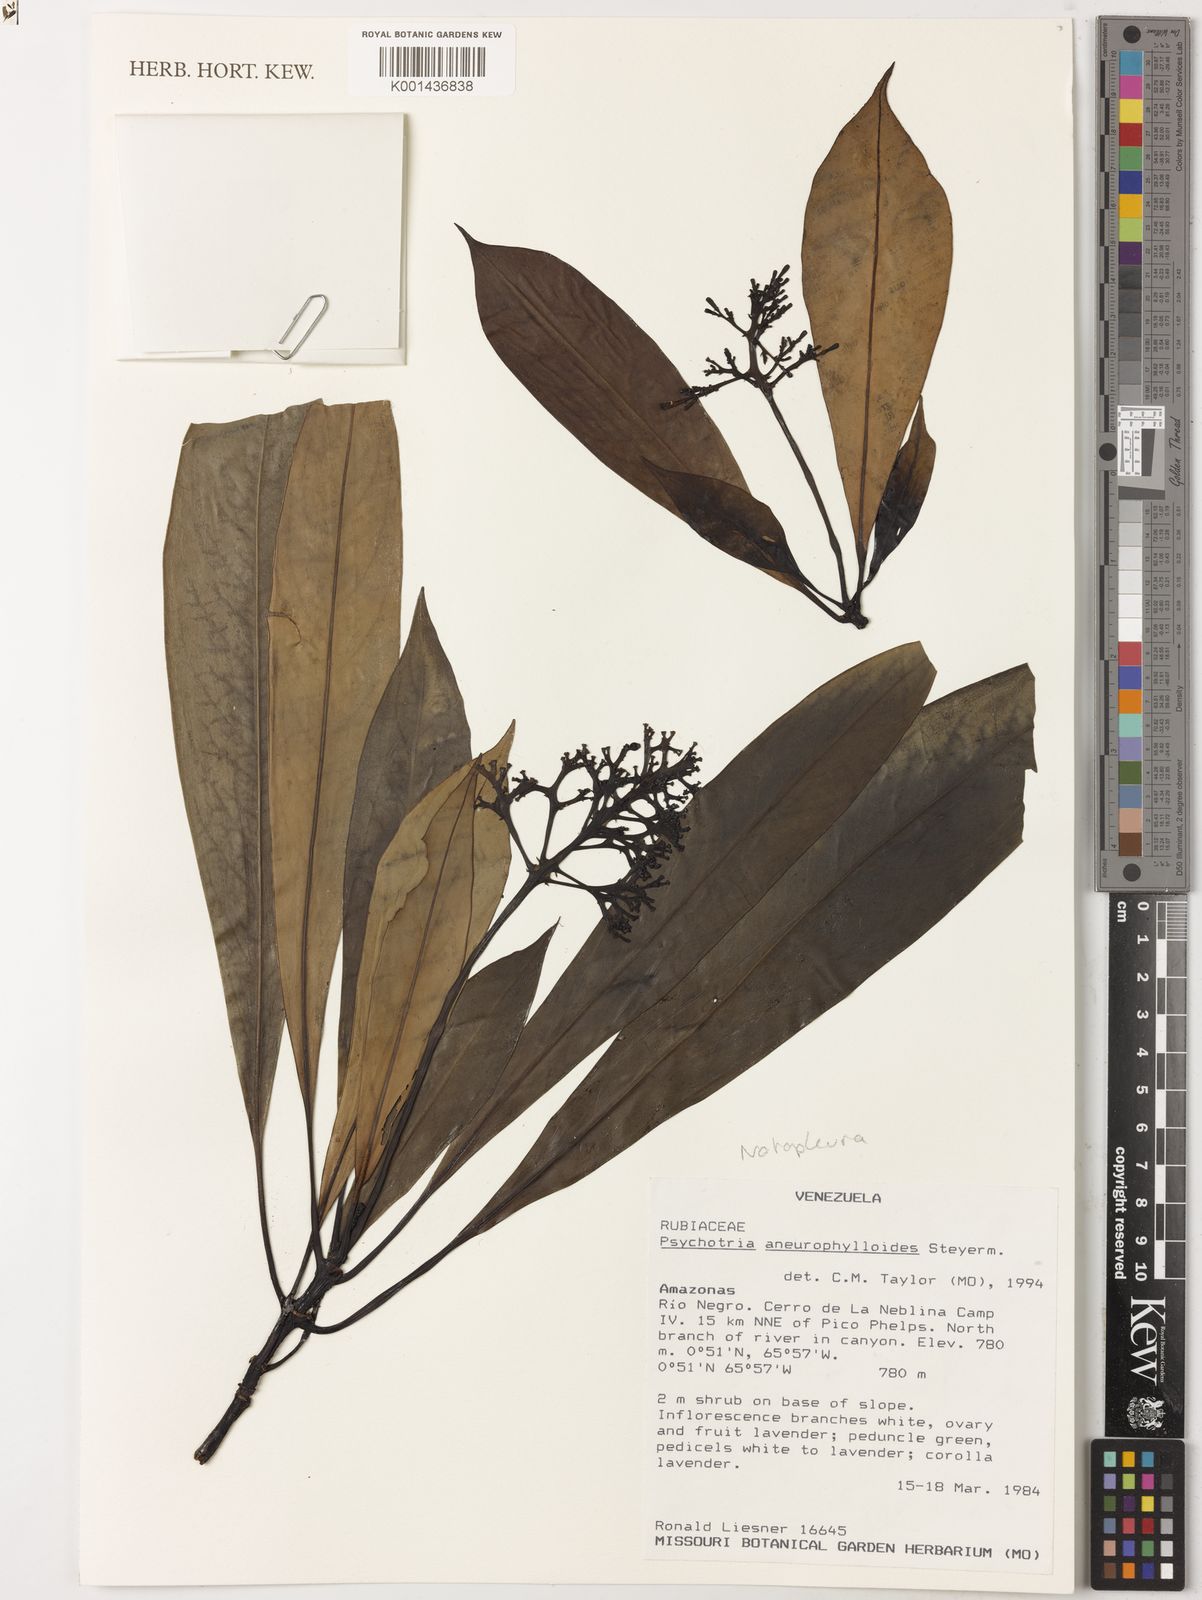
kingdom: Plantae
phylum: Tracheophyta
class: Magnoliopsida
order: Gentianales
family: Rubiaceae
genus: Notopleura
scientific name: Notopleura aneurophylla
